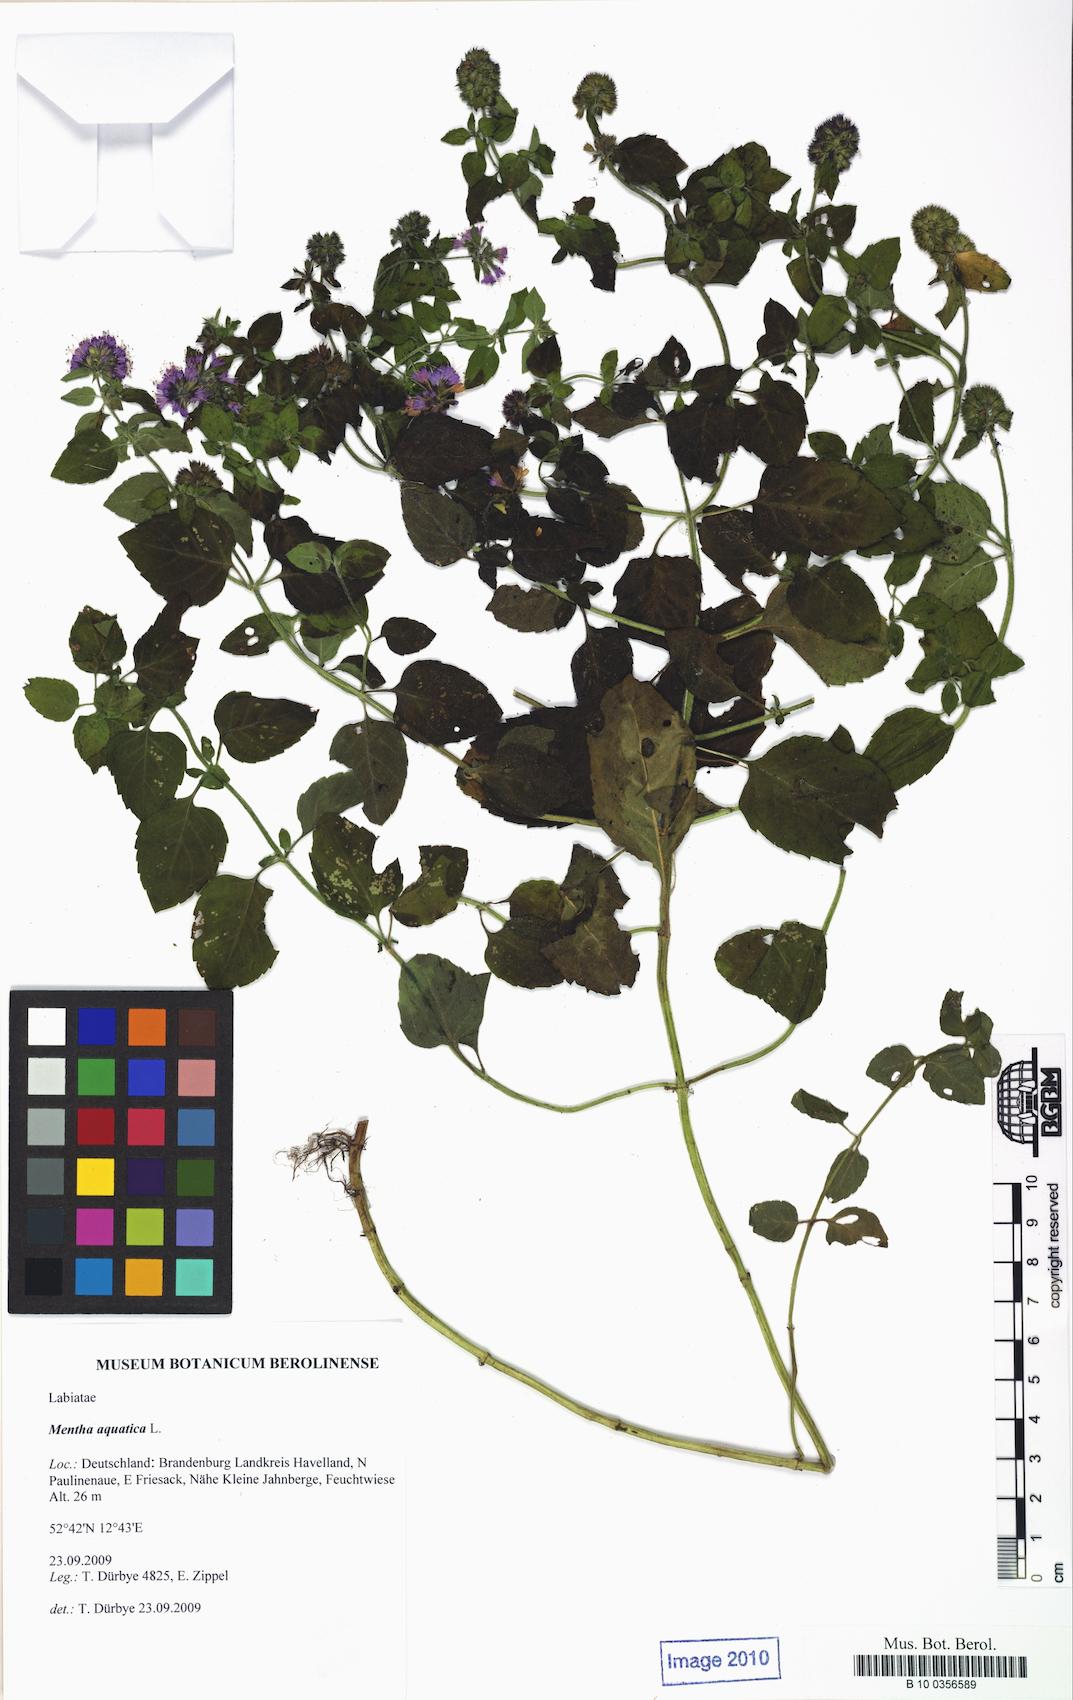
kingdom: Plantae
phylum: Tracheophyta
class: Magnoliopsida
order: Lamiales
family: Lamiaceae
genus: Mentha
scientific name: Mentha aquatica
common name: Water mint
